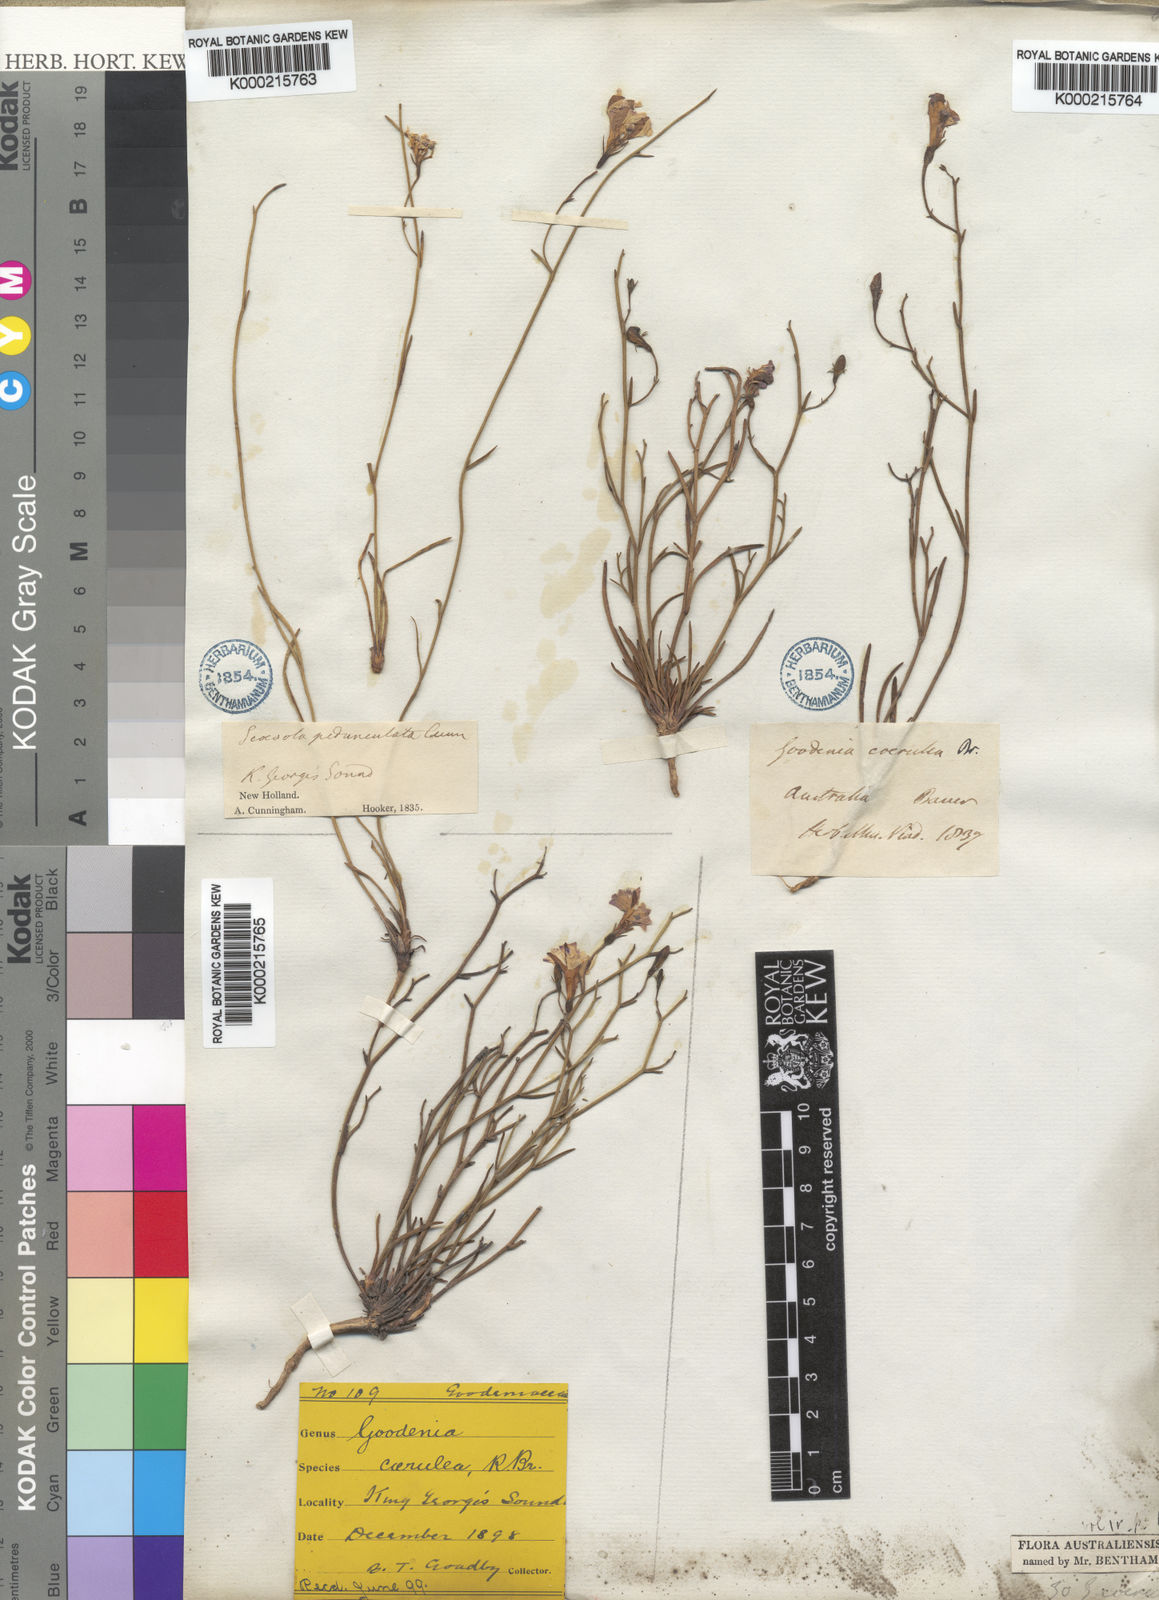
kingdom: Plantae
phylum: Tracheophyta
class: Magnoliopsida
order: Asterales
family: Goodeniaceae
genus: Goodenia
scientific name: Goodenia caerulea
